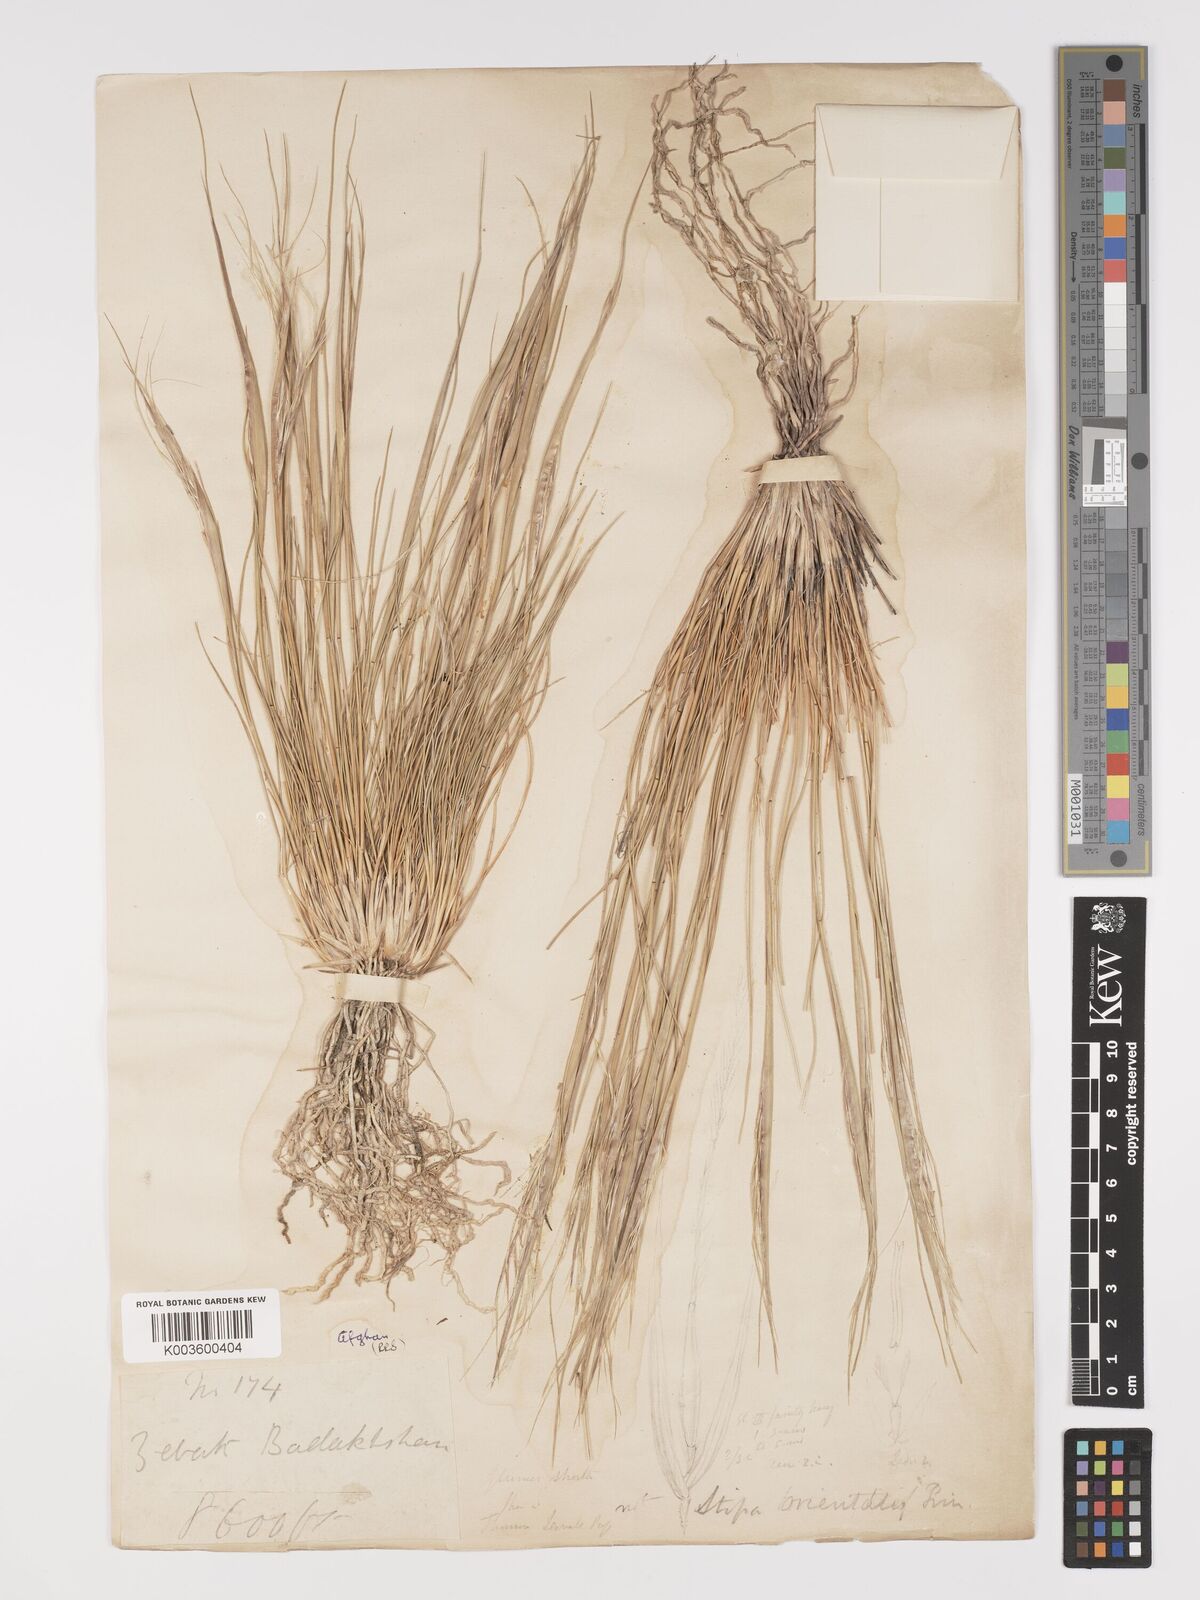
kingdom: Plantae
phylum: Tracheophyta
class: Liliopsida
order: Poales
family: Poaceae
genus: Stipa
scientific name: Stipa orientalis
